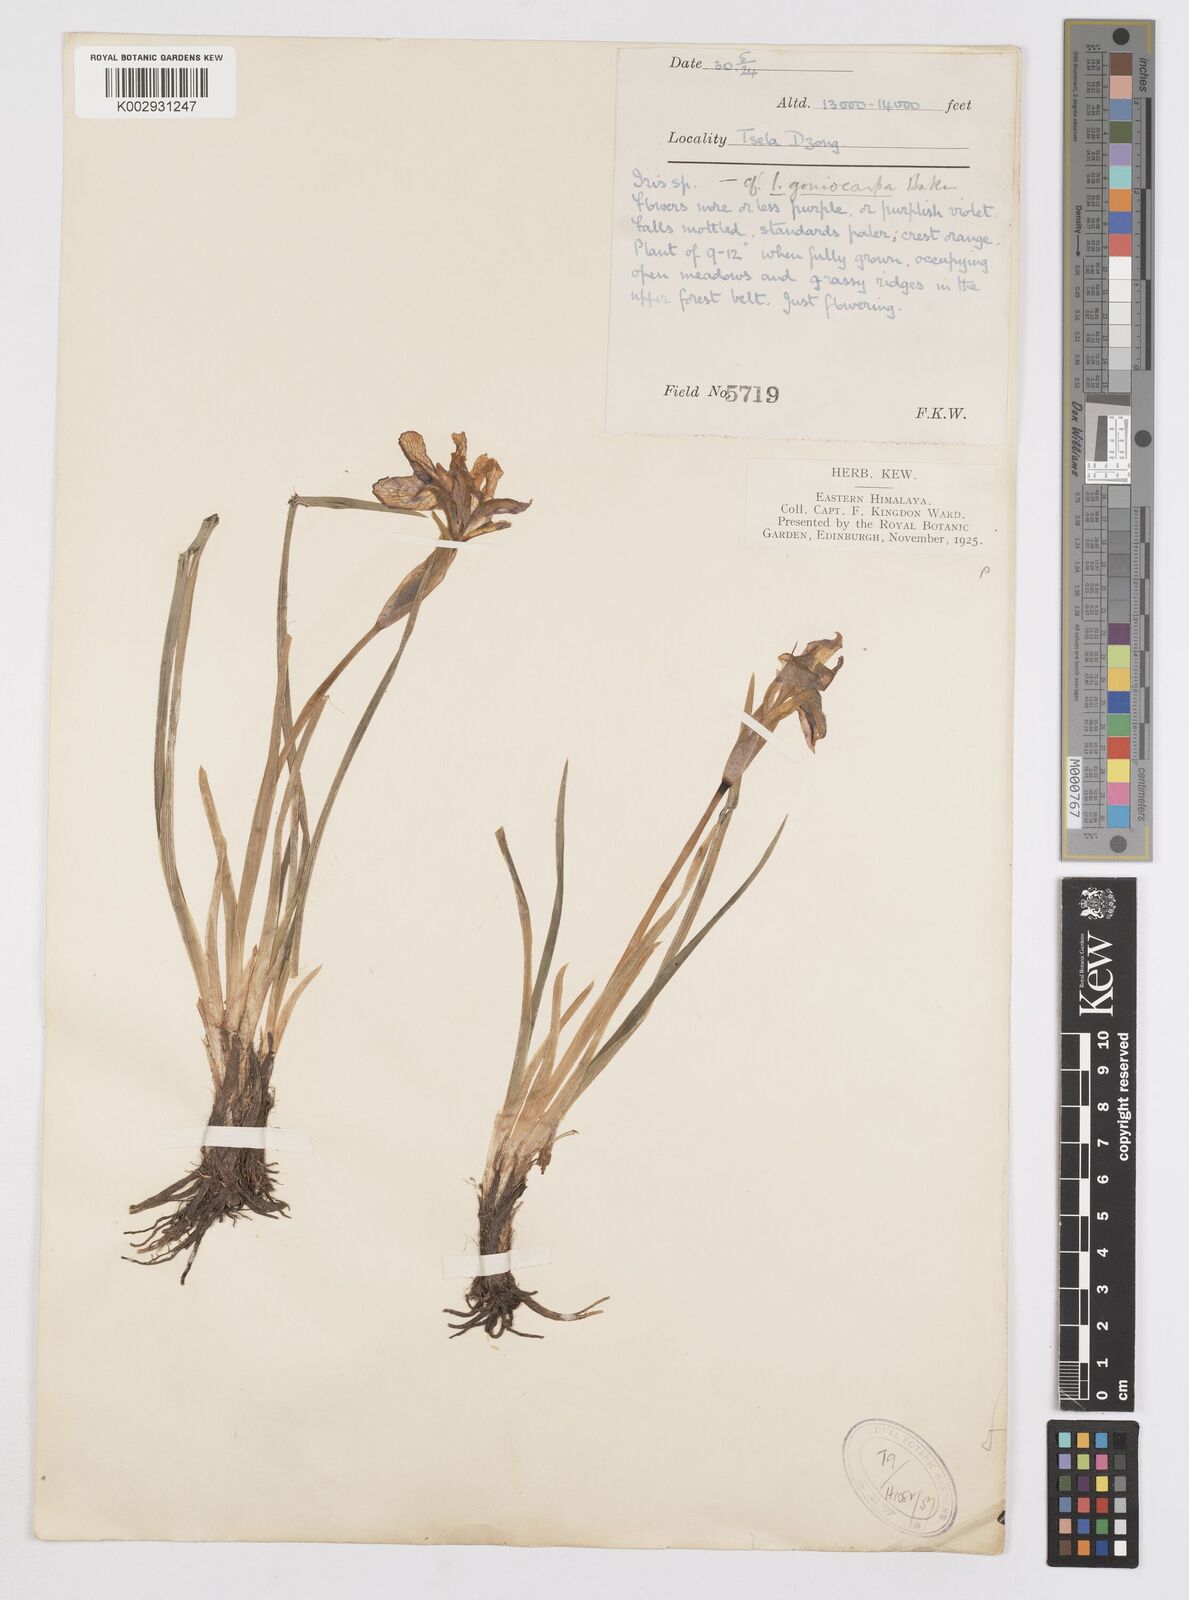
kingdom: Plantae
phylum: Tracheophyta
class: Liliopsida
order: Asparagales
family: Iridaceae
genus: Iris
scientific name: Iris goniocarpa
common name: Angular-fruit iris
